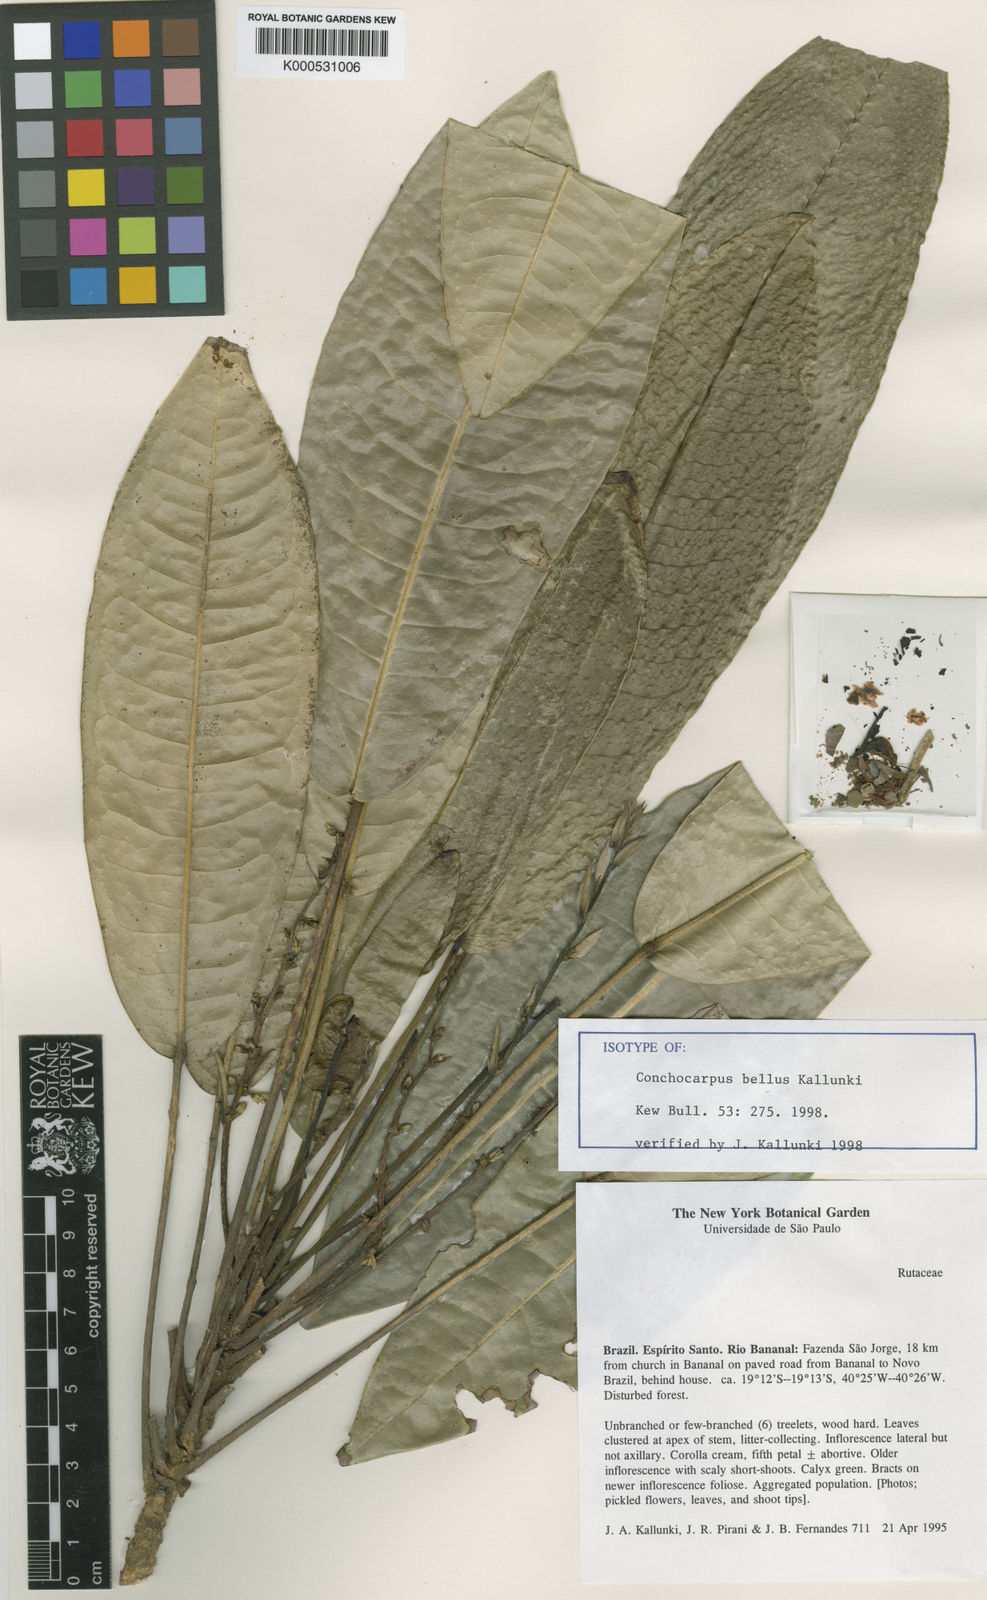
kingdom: Plantae
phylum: Tracheophyta
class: Magnoliopsida
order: Sapindales
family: Rutaceae
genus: Conchocarpus
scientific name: Conchocarpus bellus
